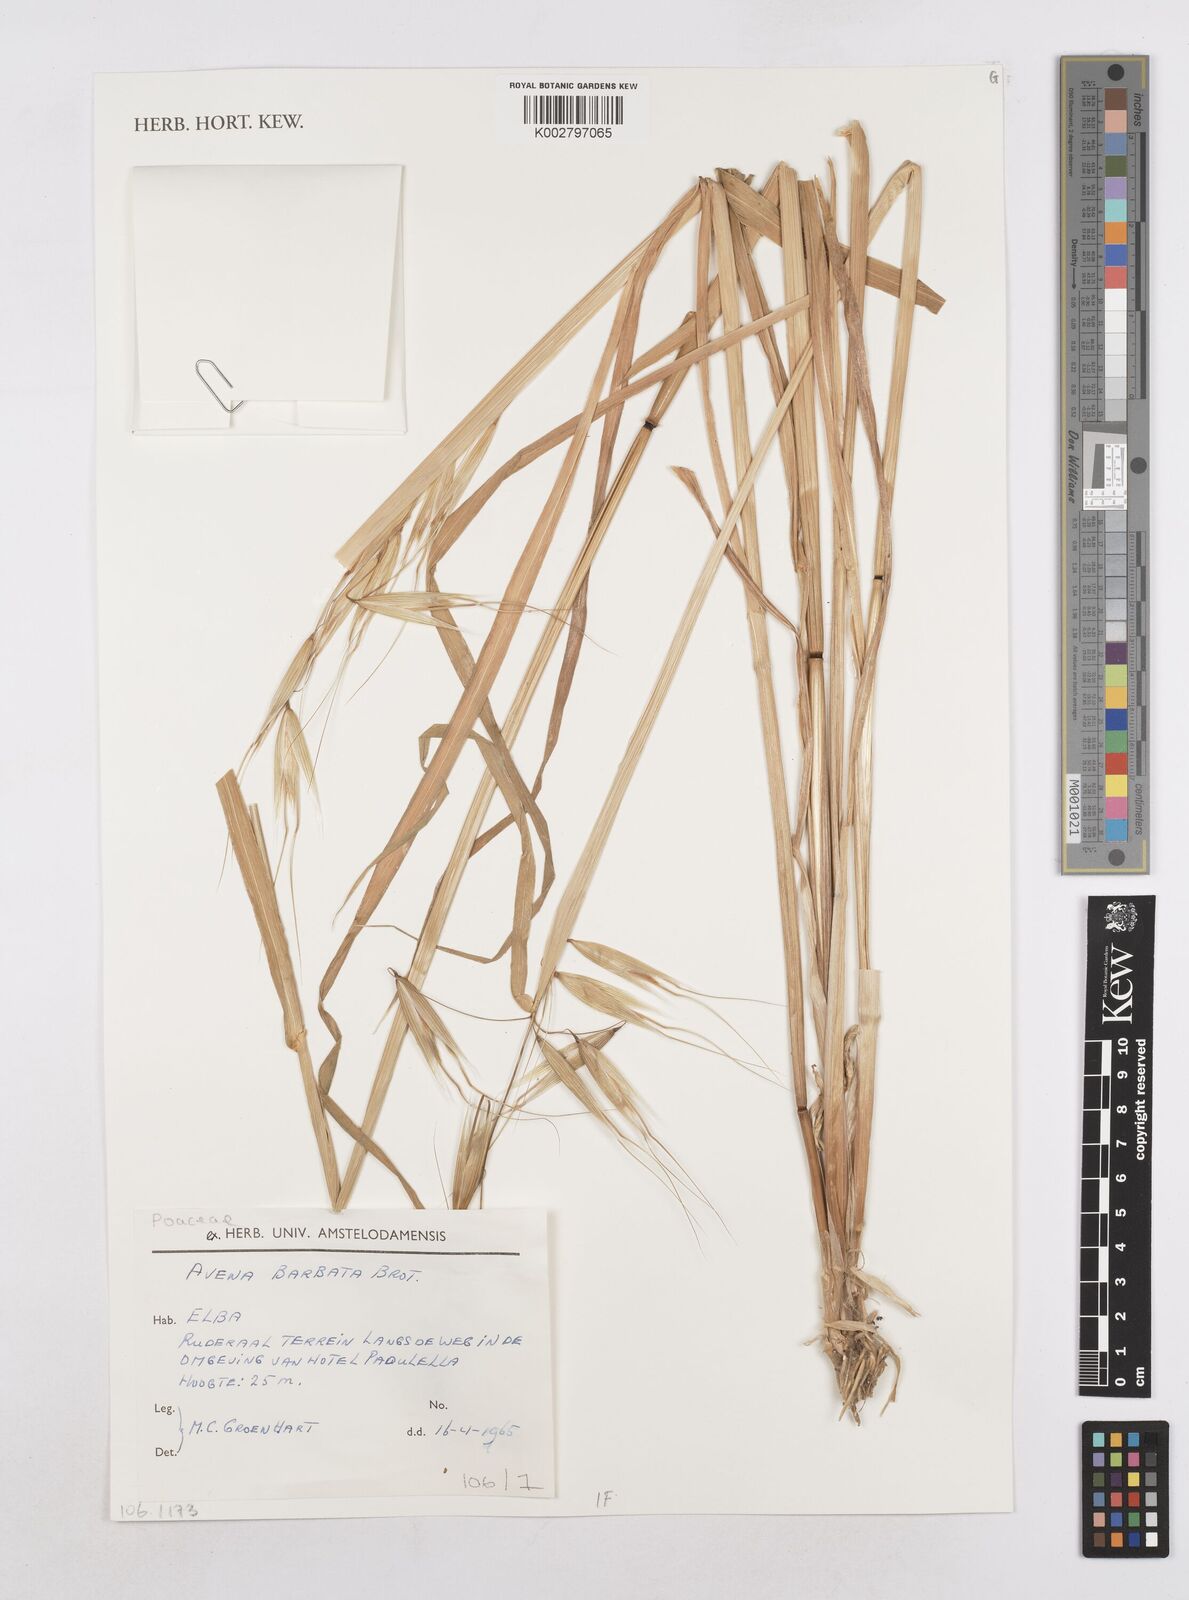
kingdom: Plantae
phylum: Tracheophyta
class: Liliopsida
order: Poales
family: Poaceae
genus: Avena
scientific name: Avena
